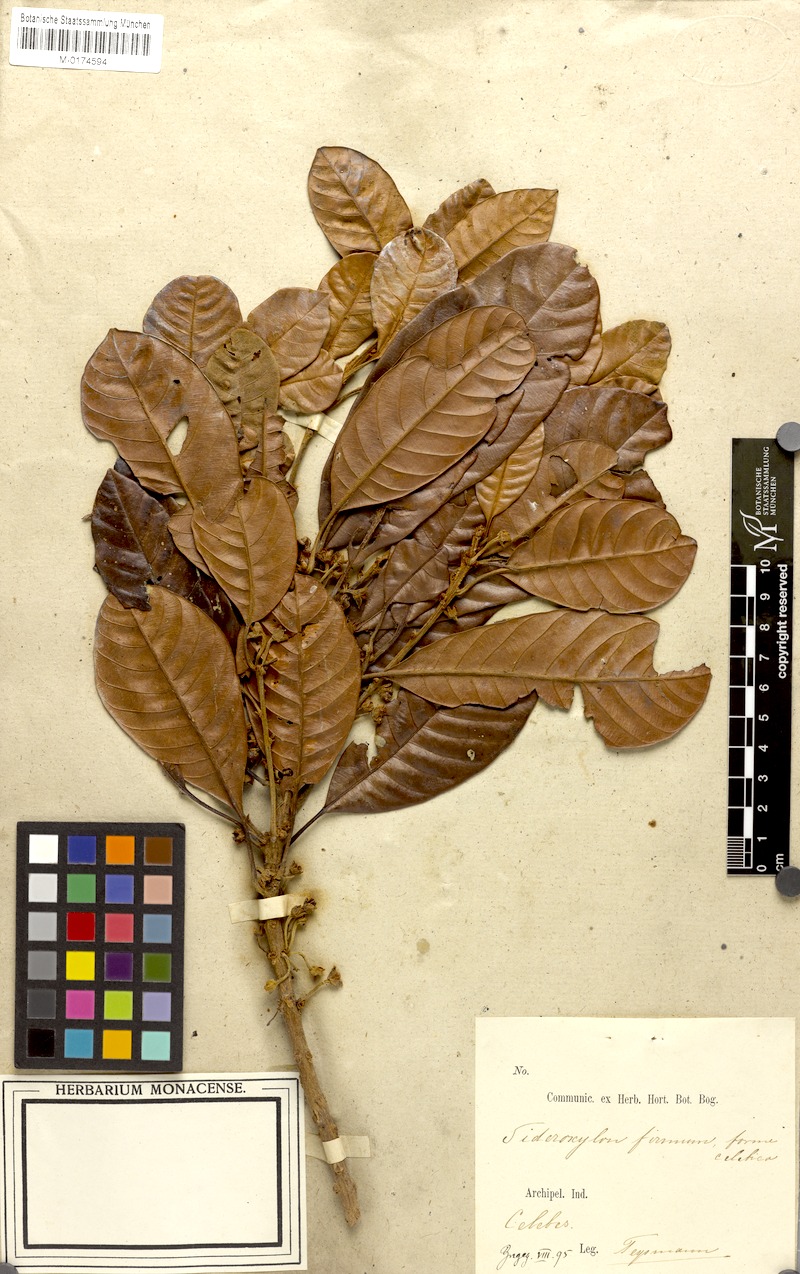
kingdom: Plantae
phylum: Tracheophyta
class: Magnoliopsida
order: Ericales
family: Sapotaceae
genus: Planchonella
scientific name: Planchonella duclitan
